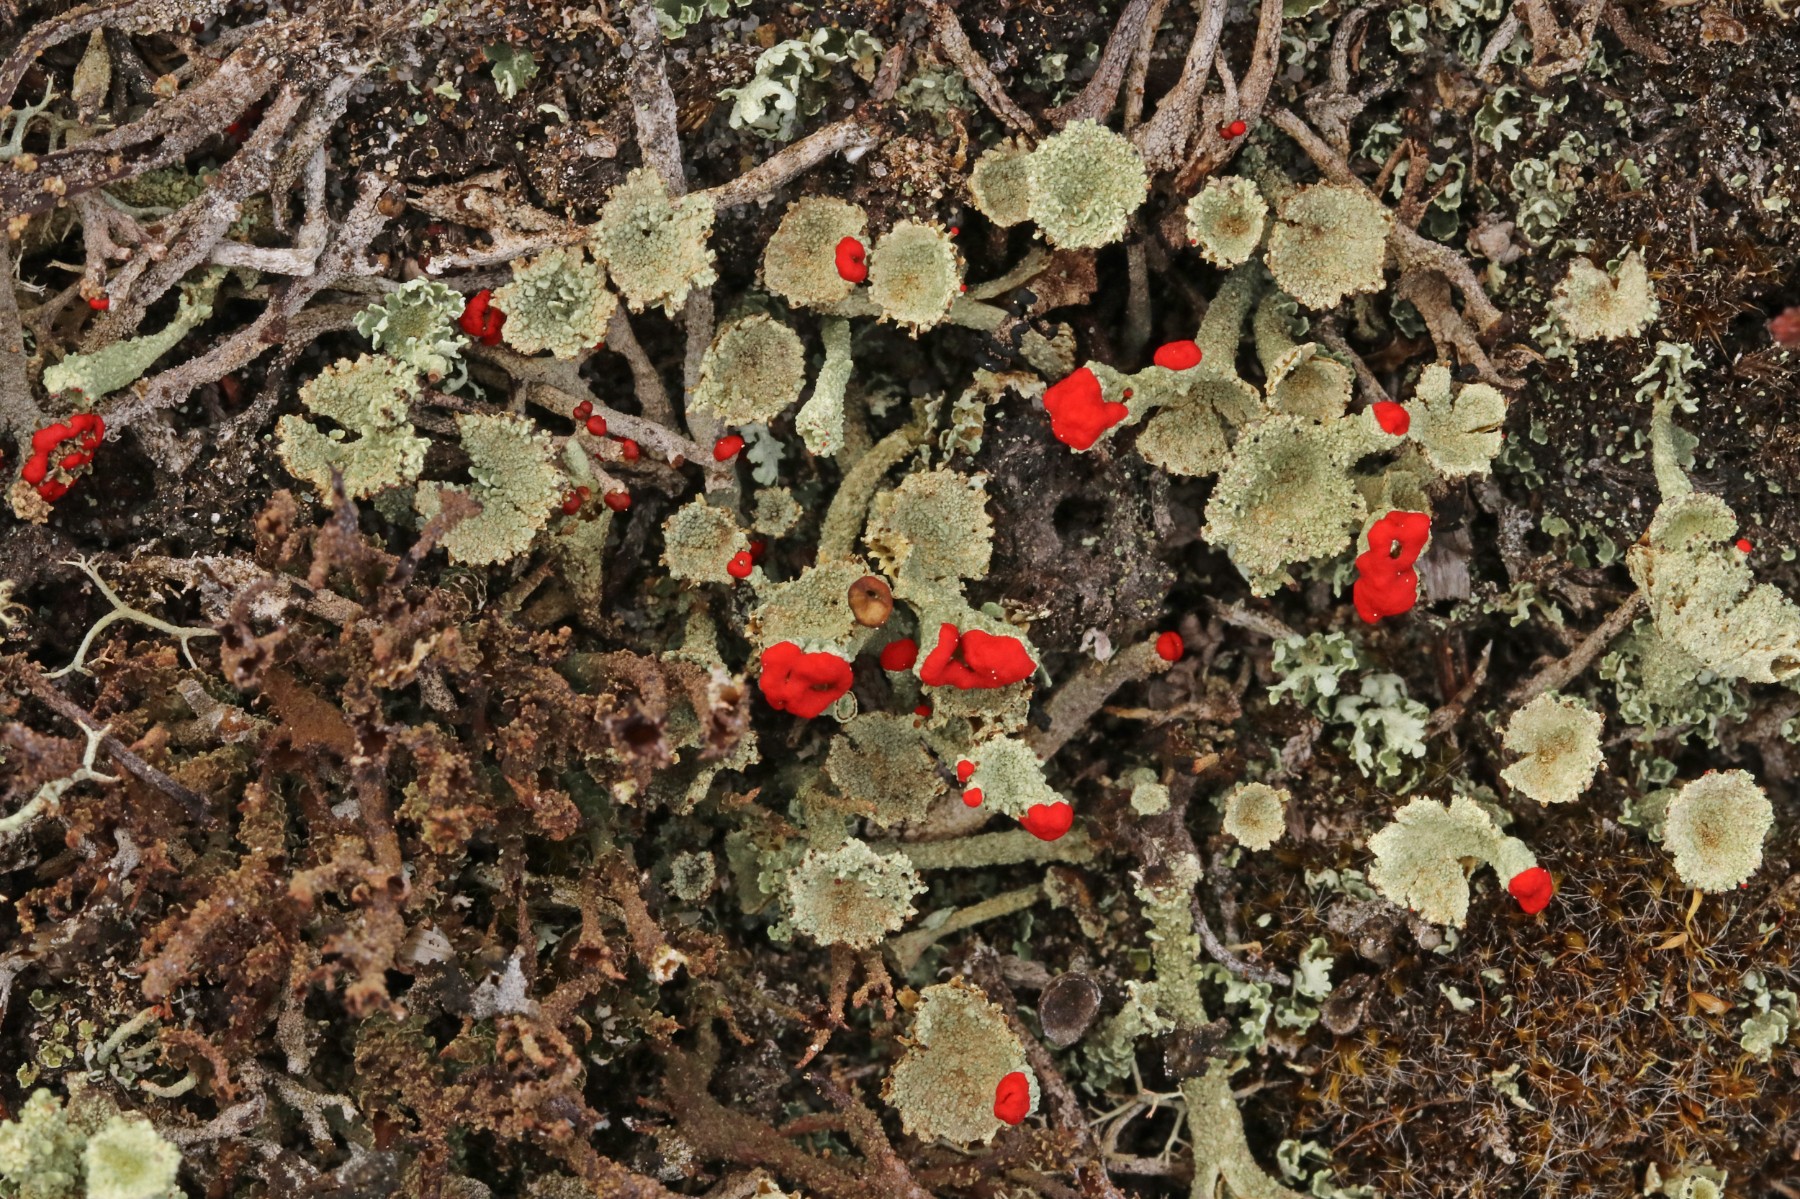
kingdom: Fungi
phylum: Ascomycota
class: Lecanoromycetes
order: Lecanorales
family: Cladoniaceae
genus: Cladonia
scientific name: Cladonia diversa
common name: rød bægerlav
